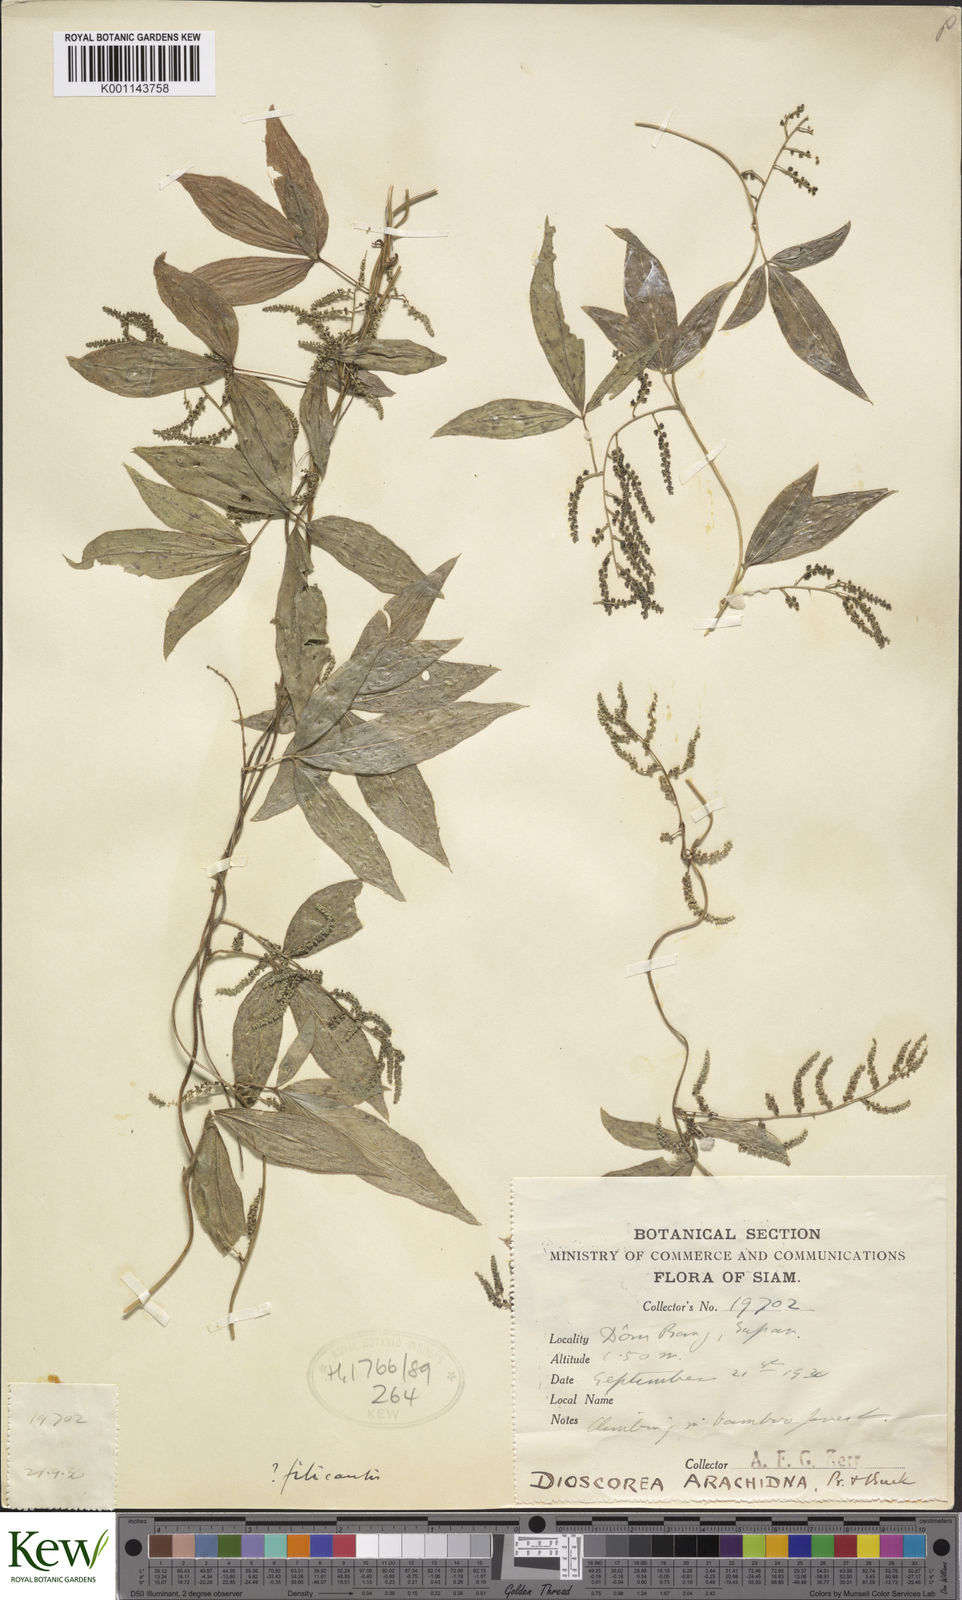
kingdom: Plantae
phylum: Tracheophyta
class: Liliopsida
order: Dioscoreales
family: Dioscoreaceae
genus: Dioscorea
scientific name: Dioscorea arachidna
